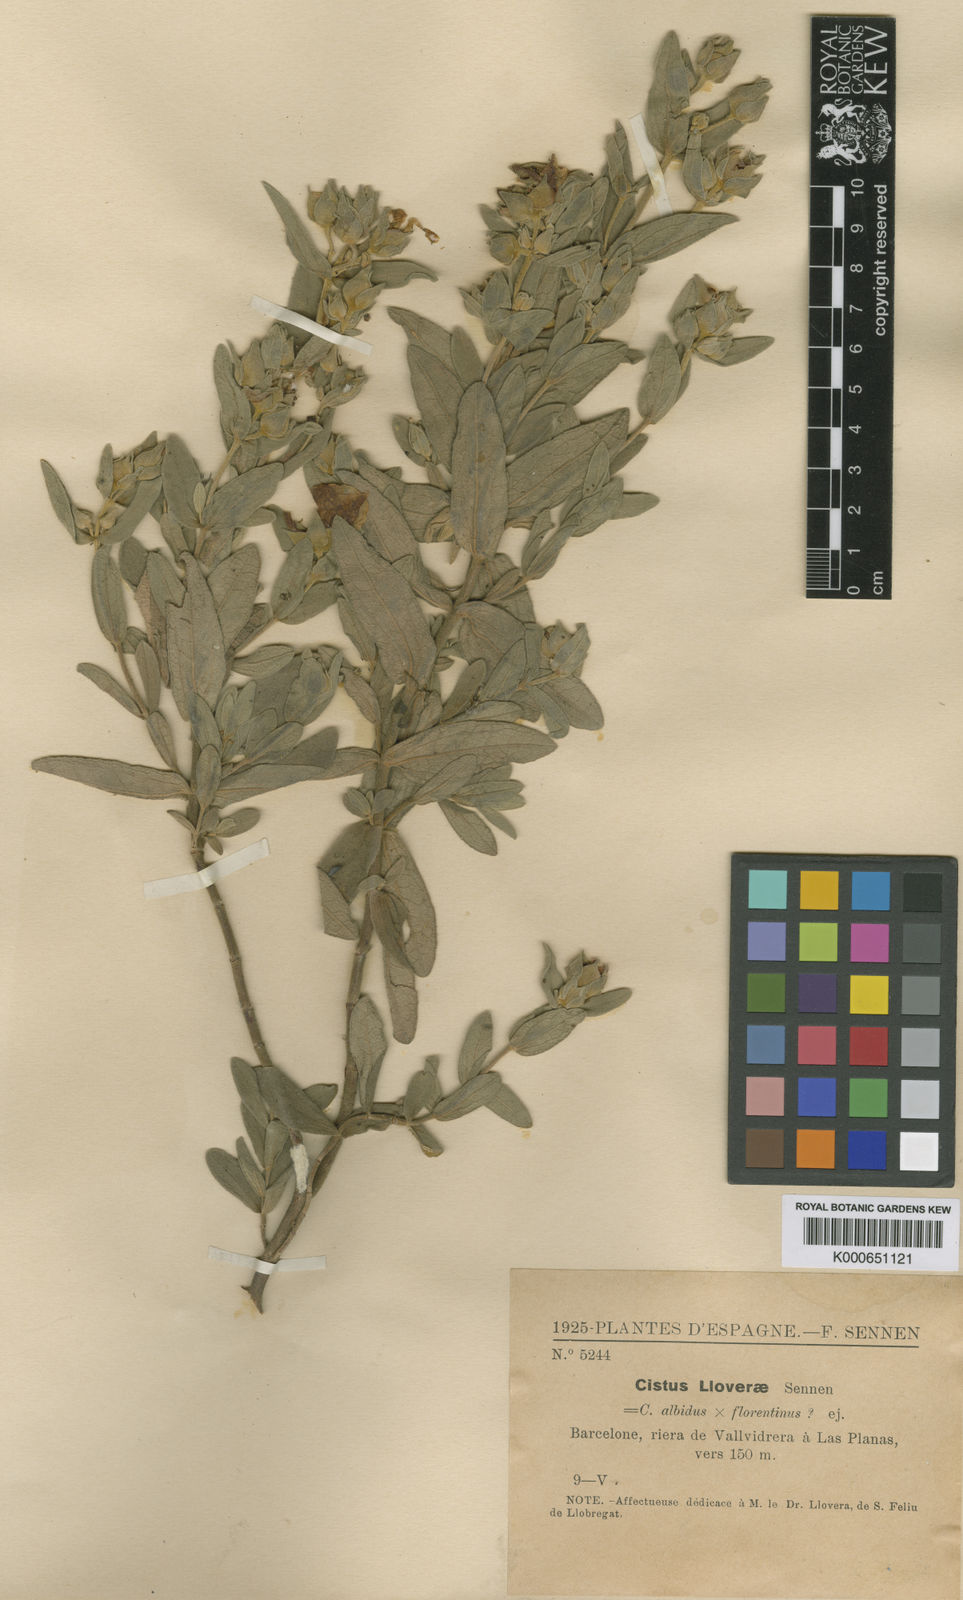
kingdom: Plantae
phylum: Tracheophyta
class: Magnoliopsida
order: Malvales
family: Cistaceae
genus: Cistus
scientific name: Cistus albidus
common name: White-leaf rock-rose
